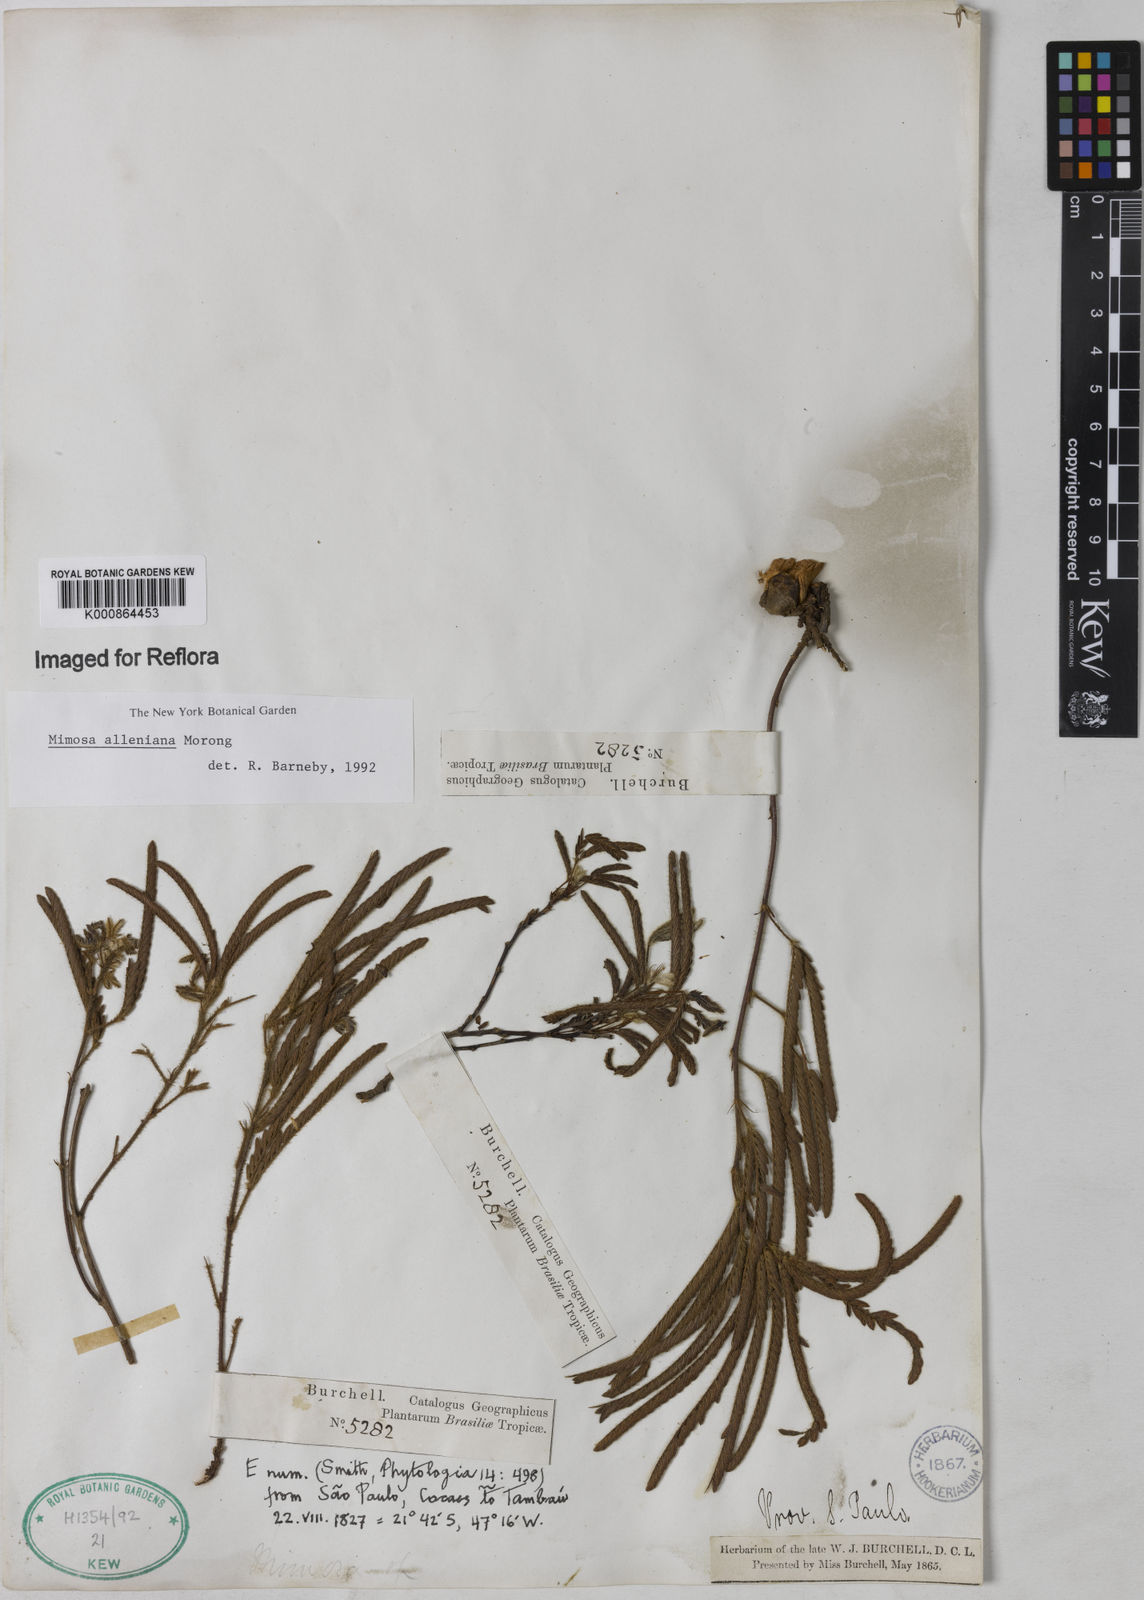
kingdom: Plantae
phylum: Tracheophyta
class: Magnoliopsida
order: Fabales
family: Fabaceae
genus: Mimosa
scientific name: Mimosa alleniana
